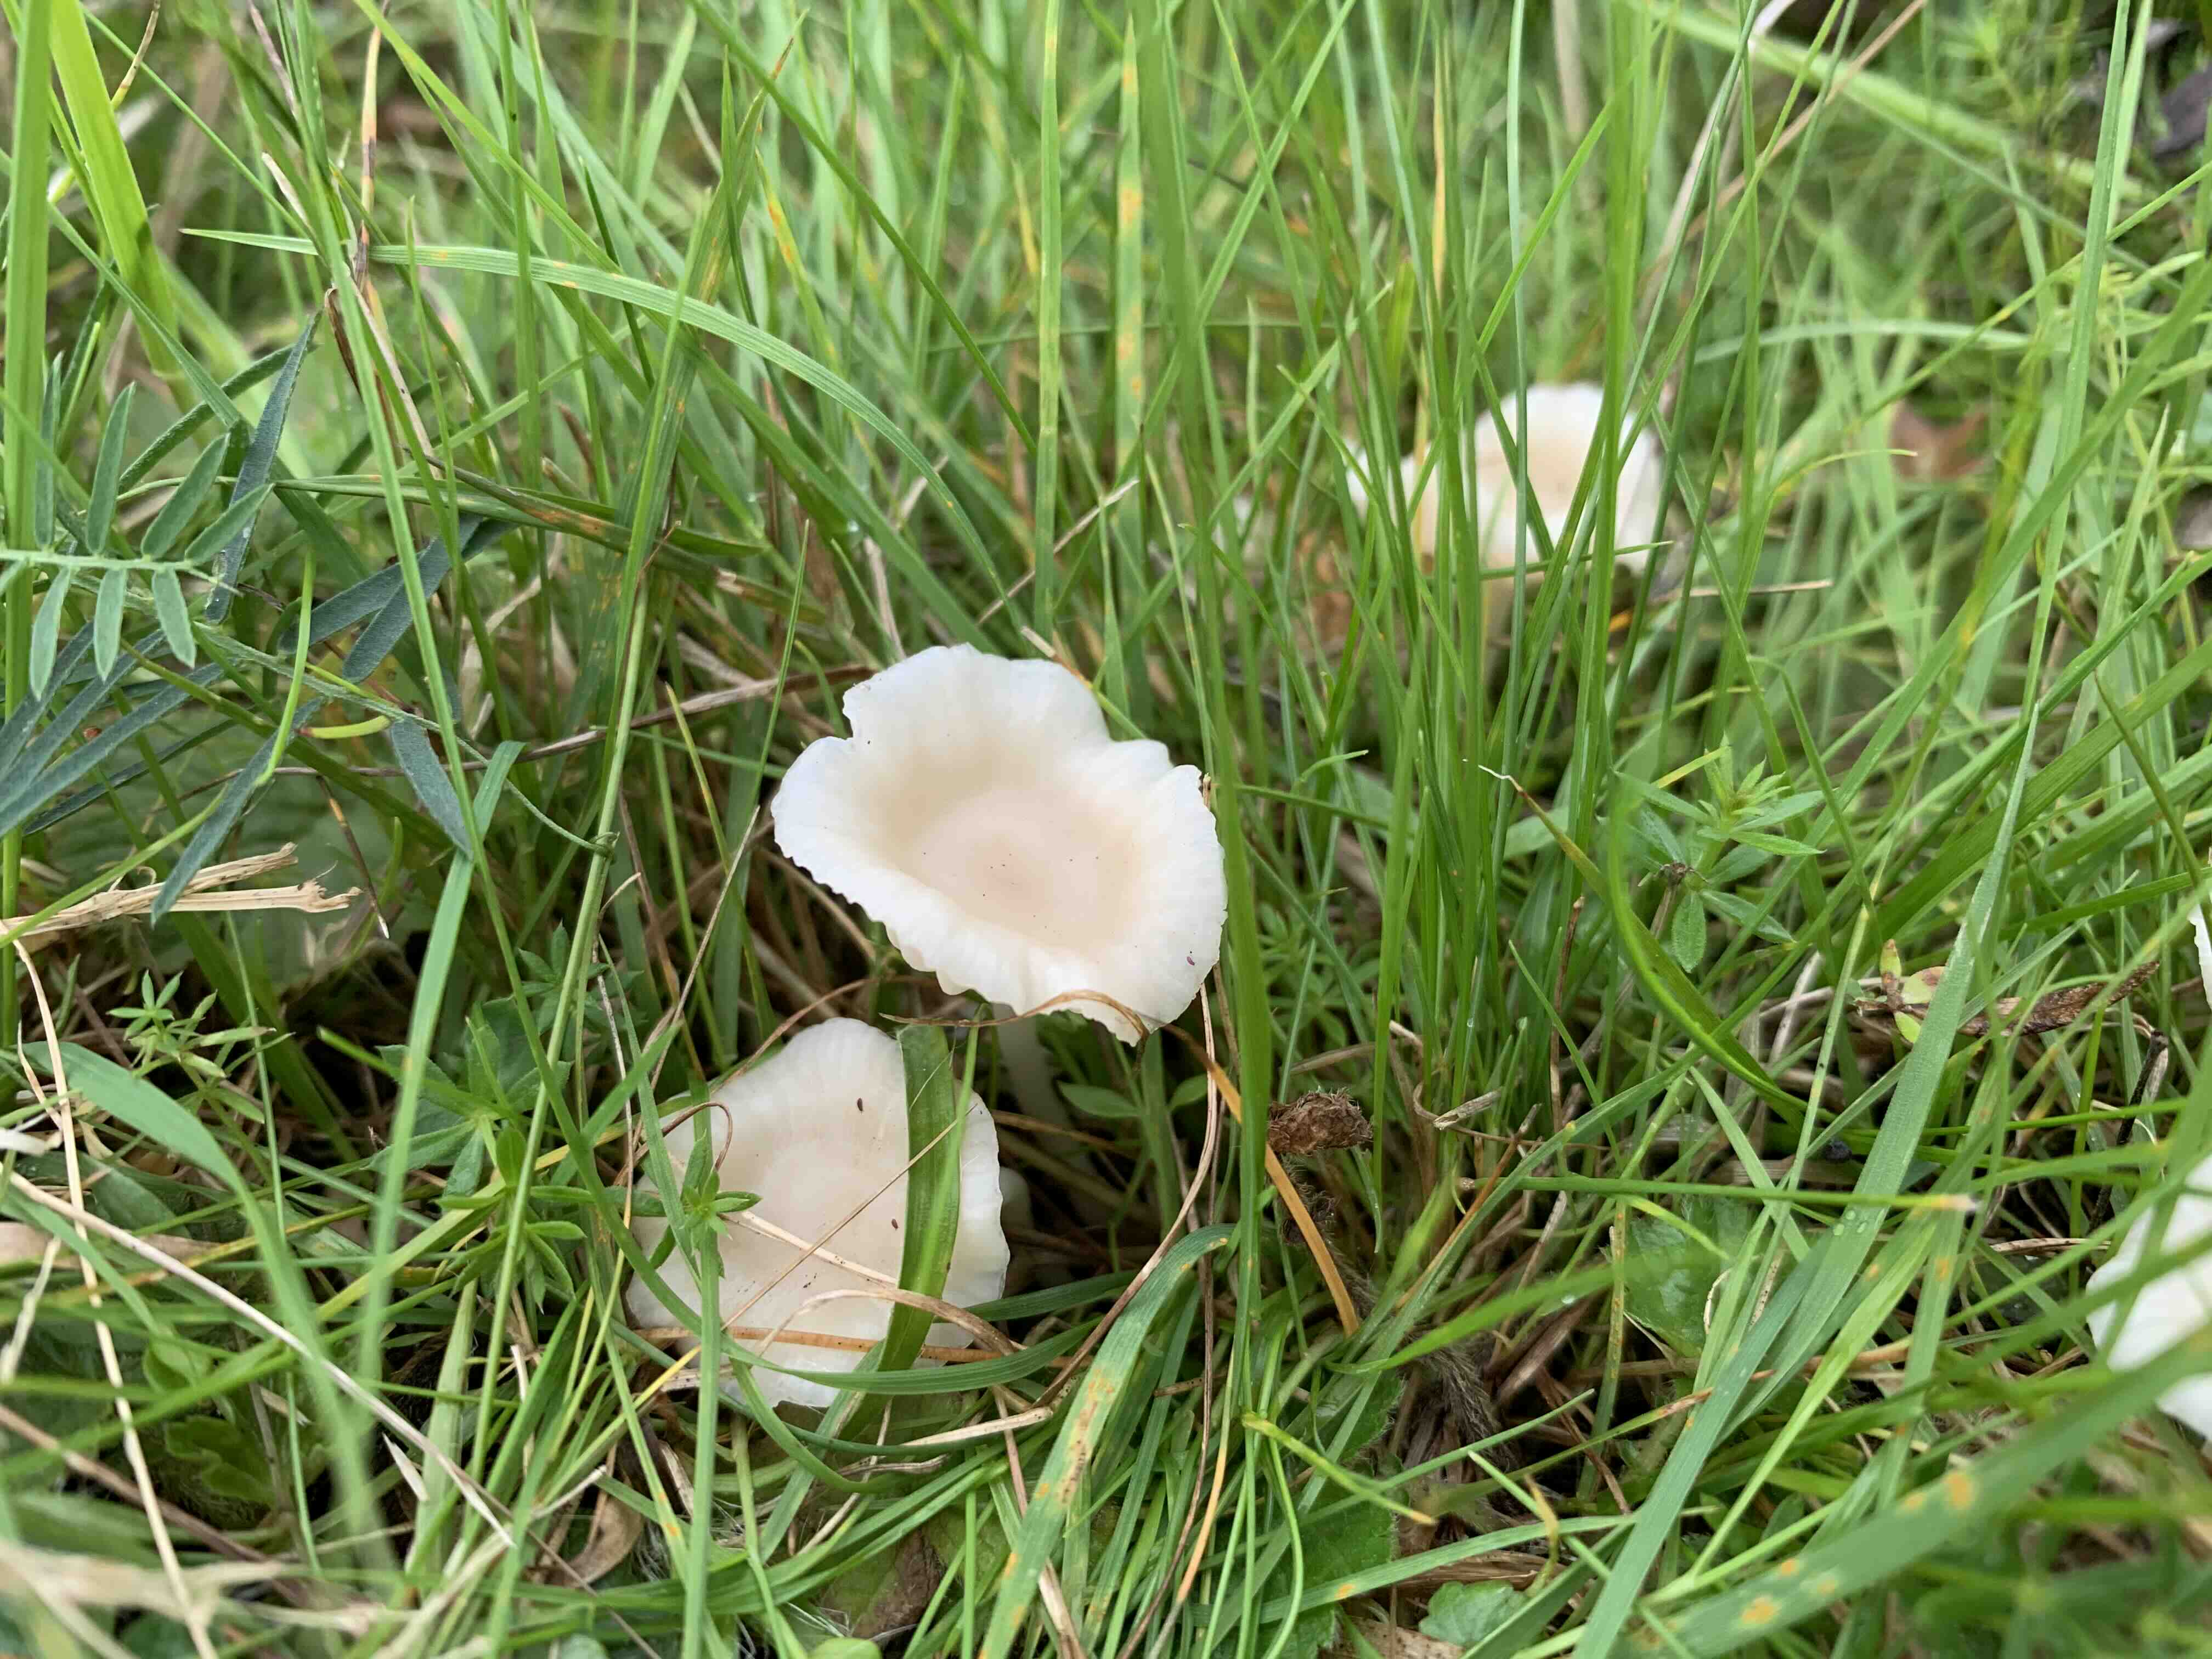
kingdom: Fungi
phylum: Basidiomycota
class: Agaricomycetes
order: Agaricales
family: Hygrophoraceae
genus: Cuphophyllus
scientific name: Cuphophyllus
